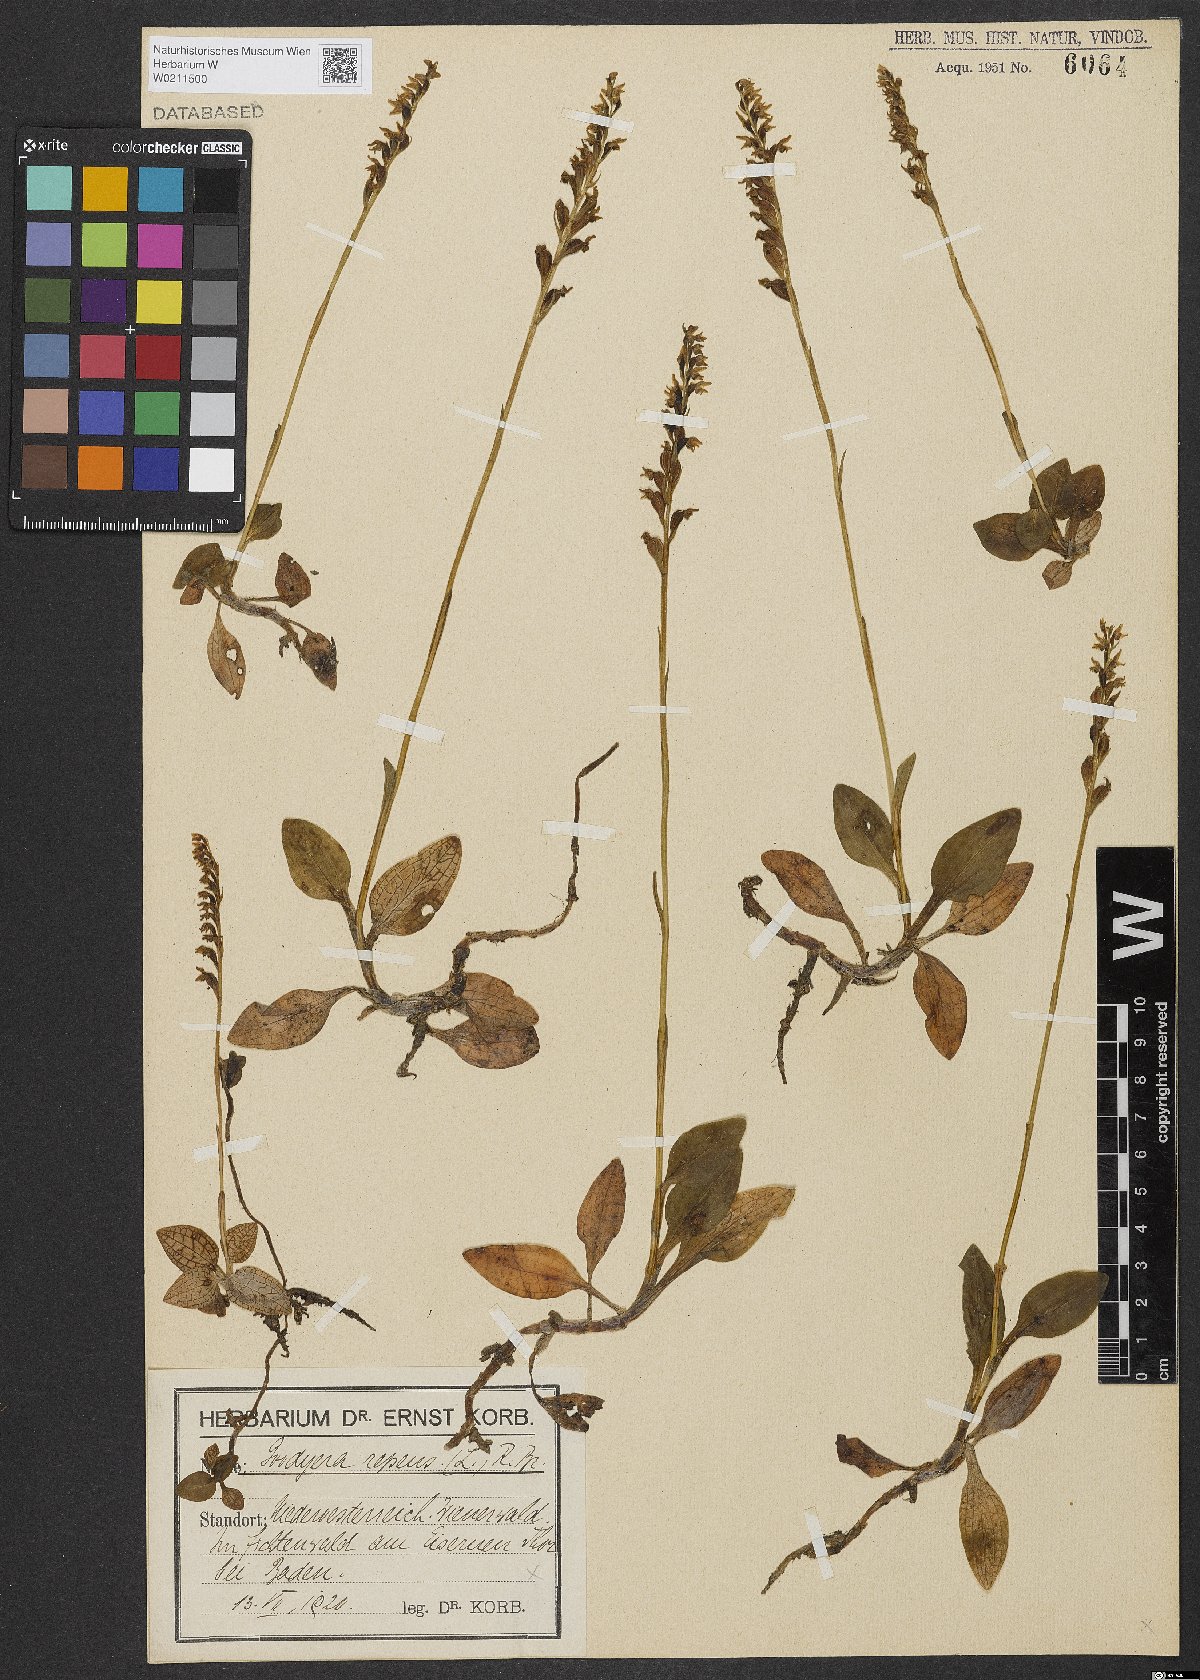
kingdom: Plantae
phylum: Tracheophyta
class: Liliopsida
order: Asparagales
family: Orchidaceae
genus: Goodyera
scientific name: Goodyera repens
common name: Creeping lady's-tresses
